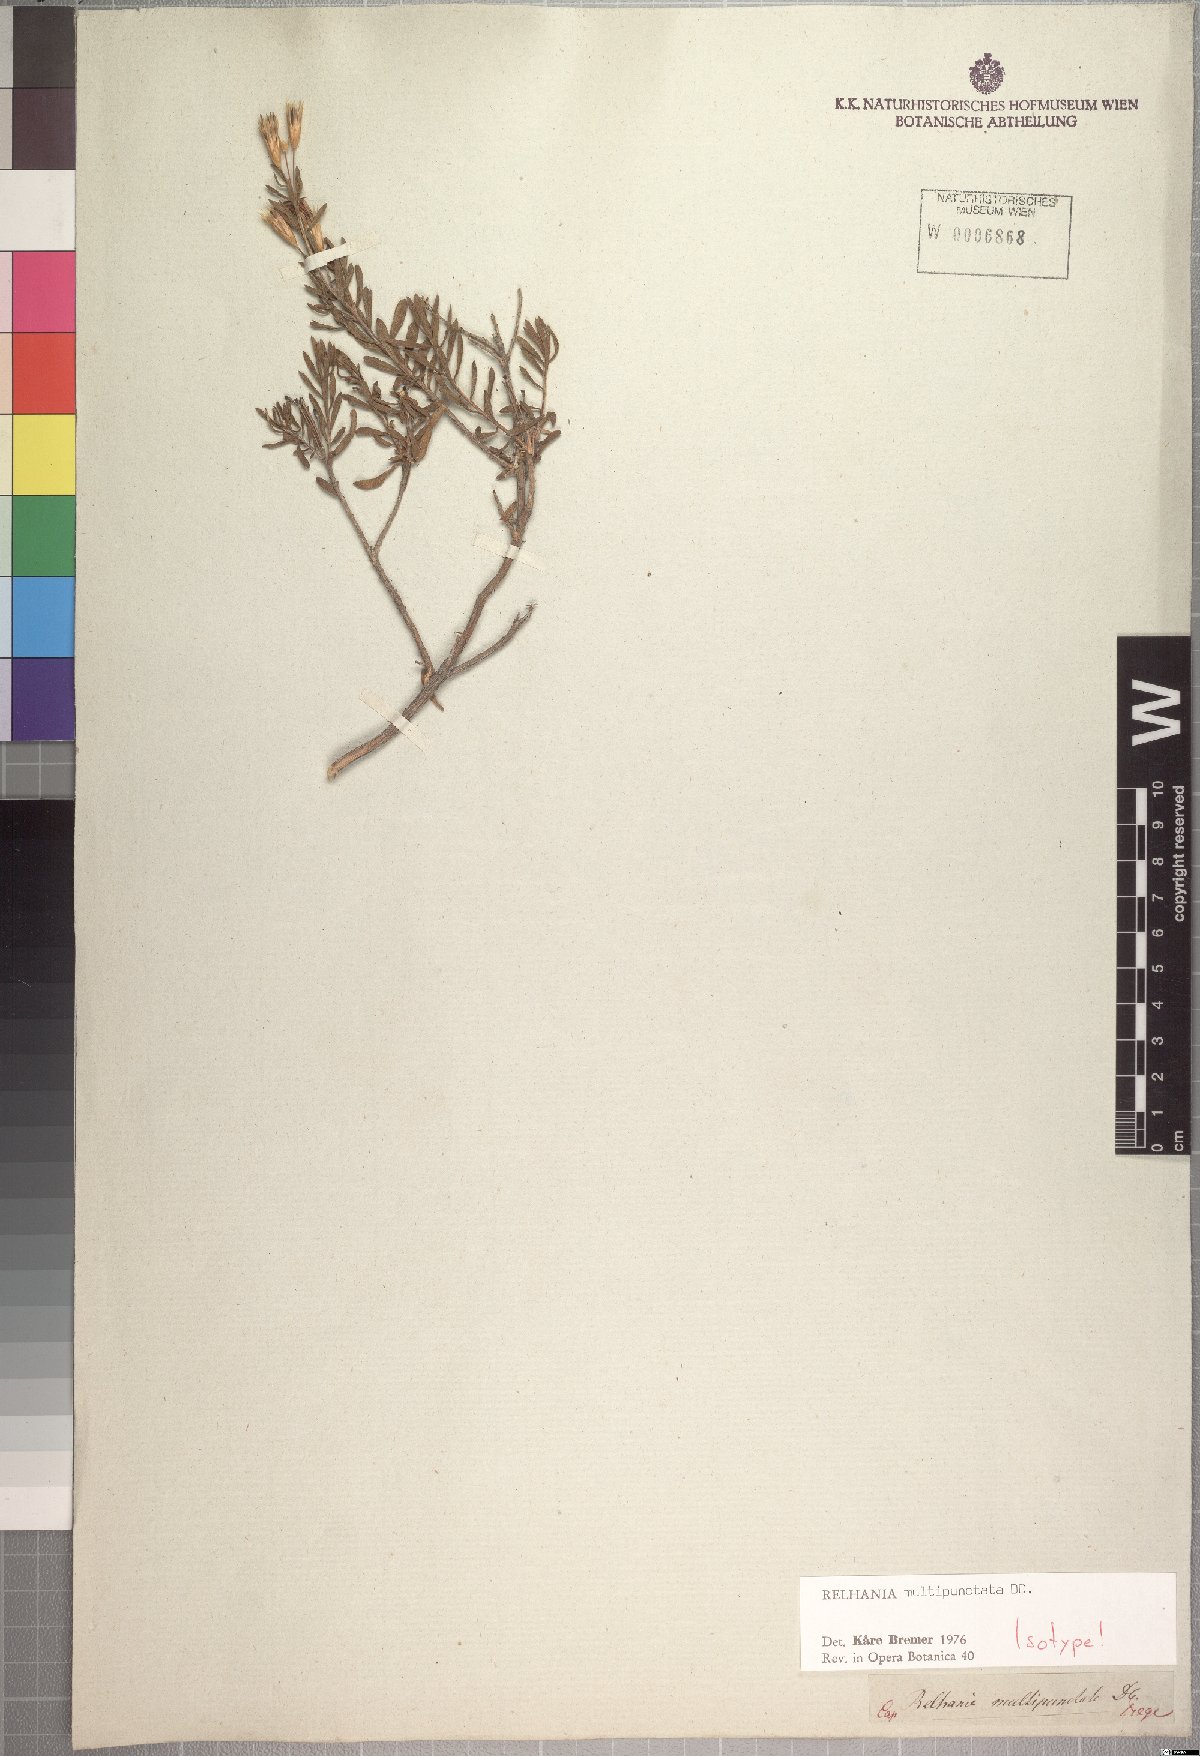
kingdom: Plantae
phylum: Tracheophyta
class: Magnoliopsida
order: Asterales
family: Asteraceae
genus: Oedera
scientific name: Oedera multipunctata
